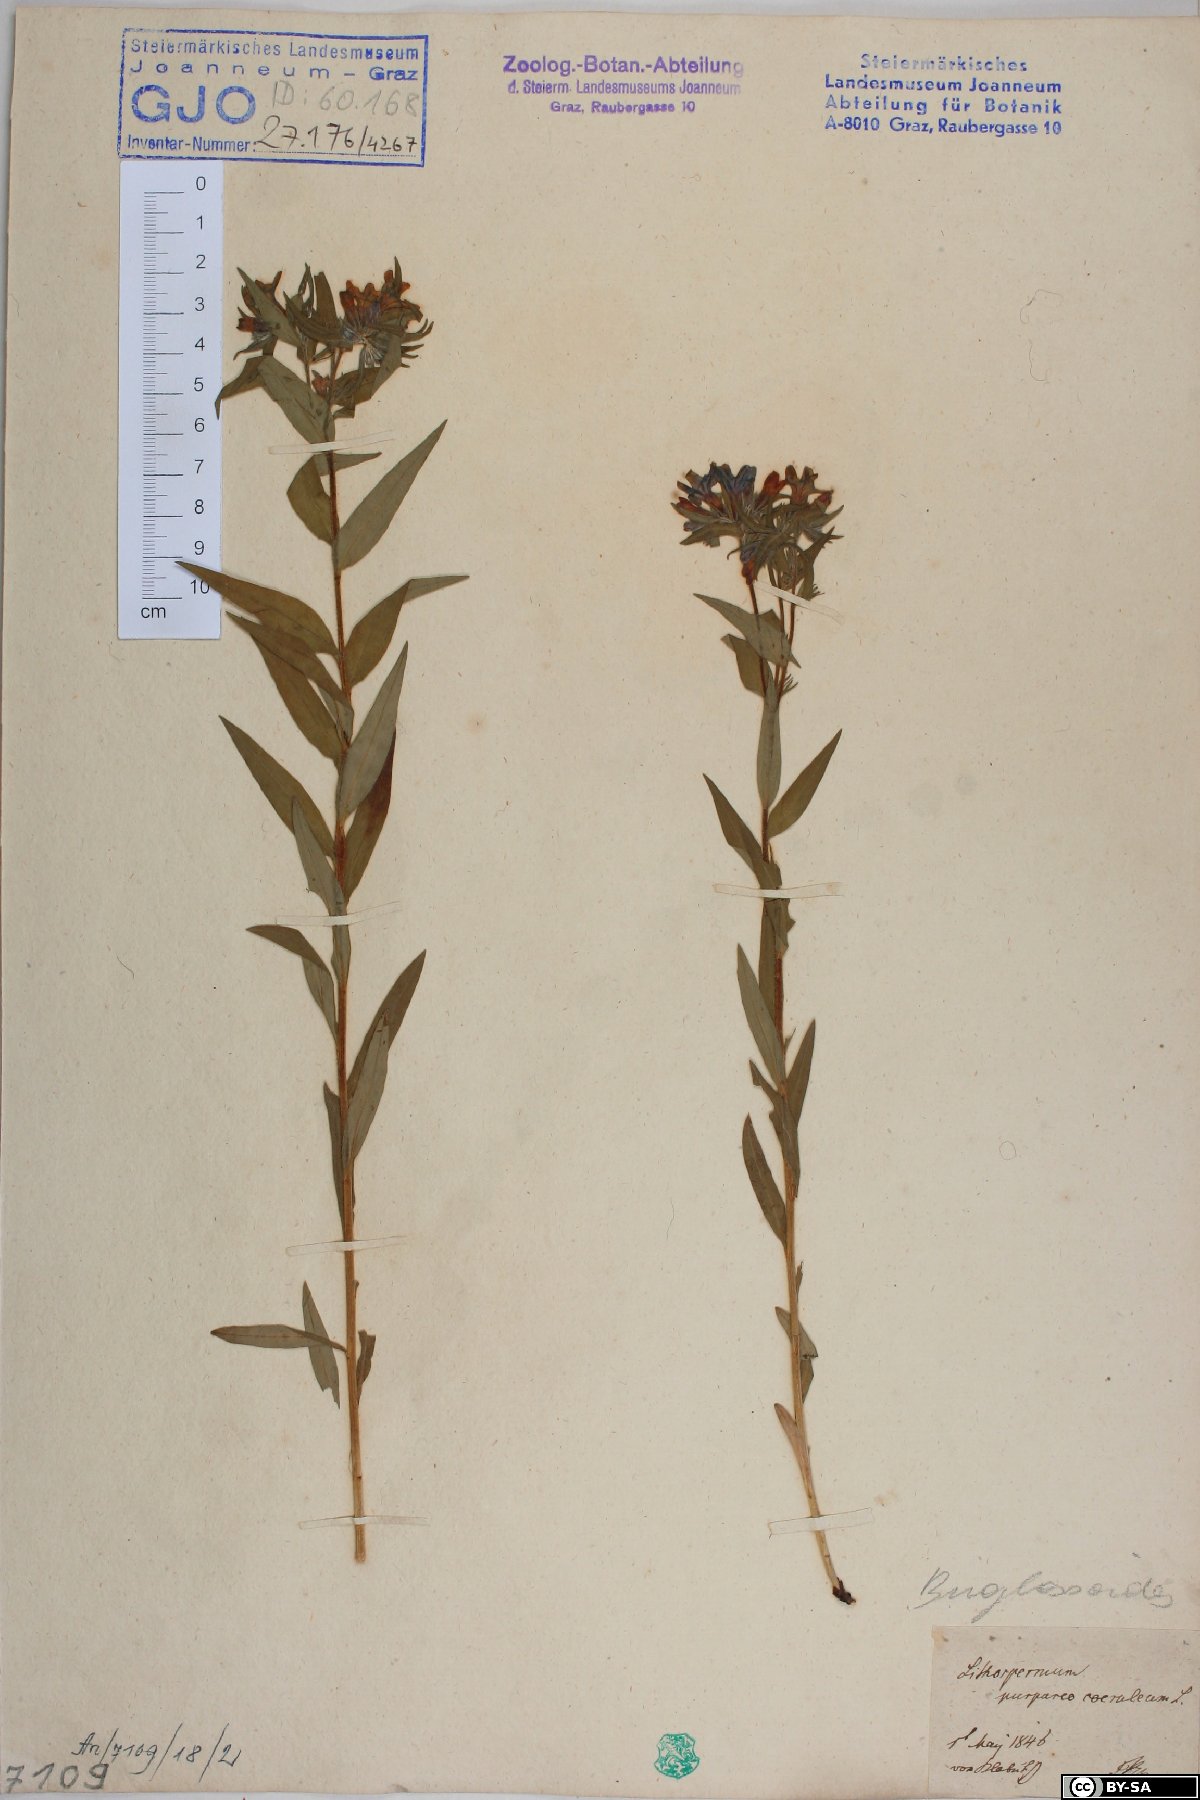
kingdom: Plantae
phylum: Tracheophyta
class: Magnoliopsida
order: Boraginales
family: Boraginaceae
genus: Aegonychon
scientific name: Aegonychon purpurocaeruleum
